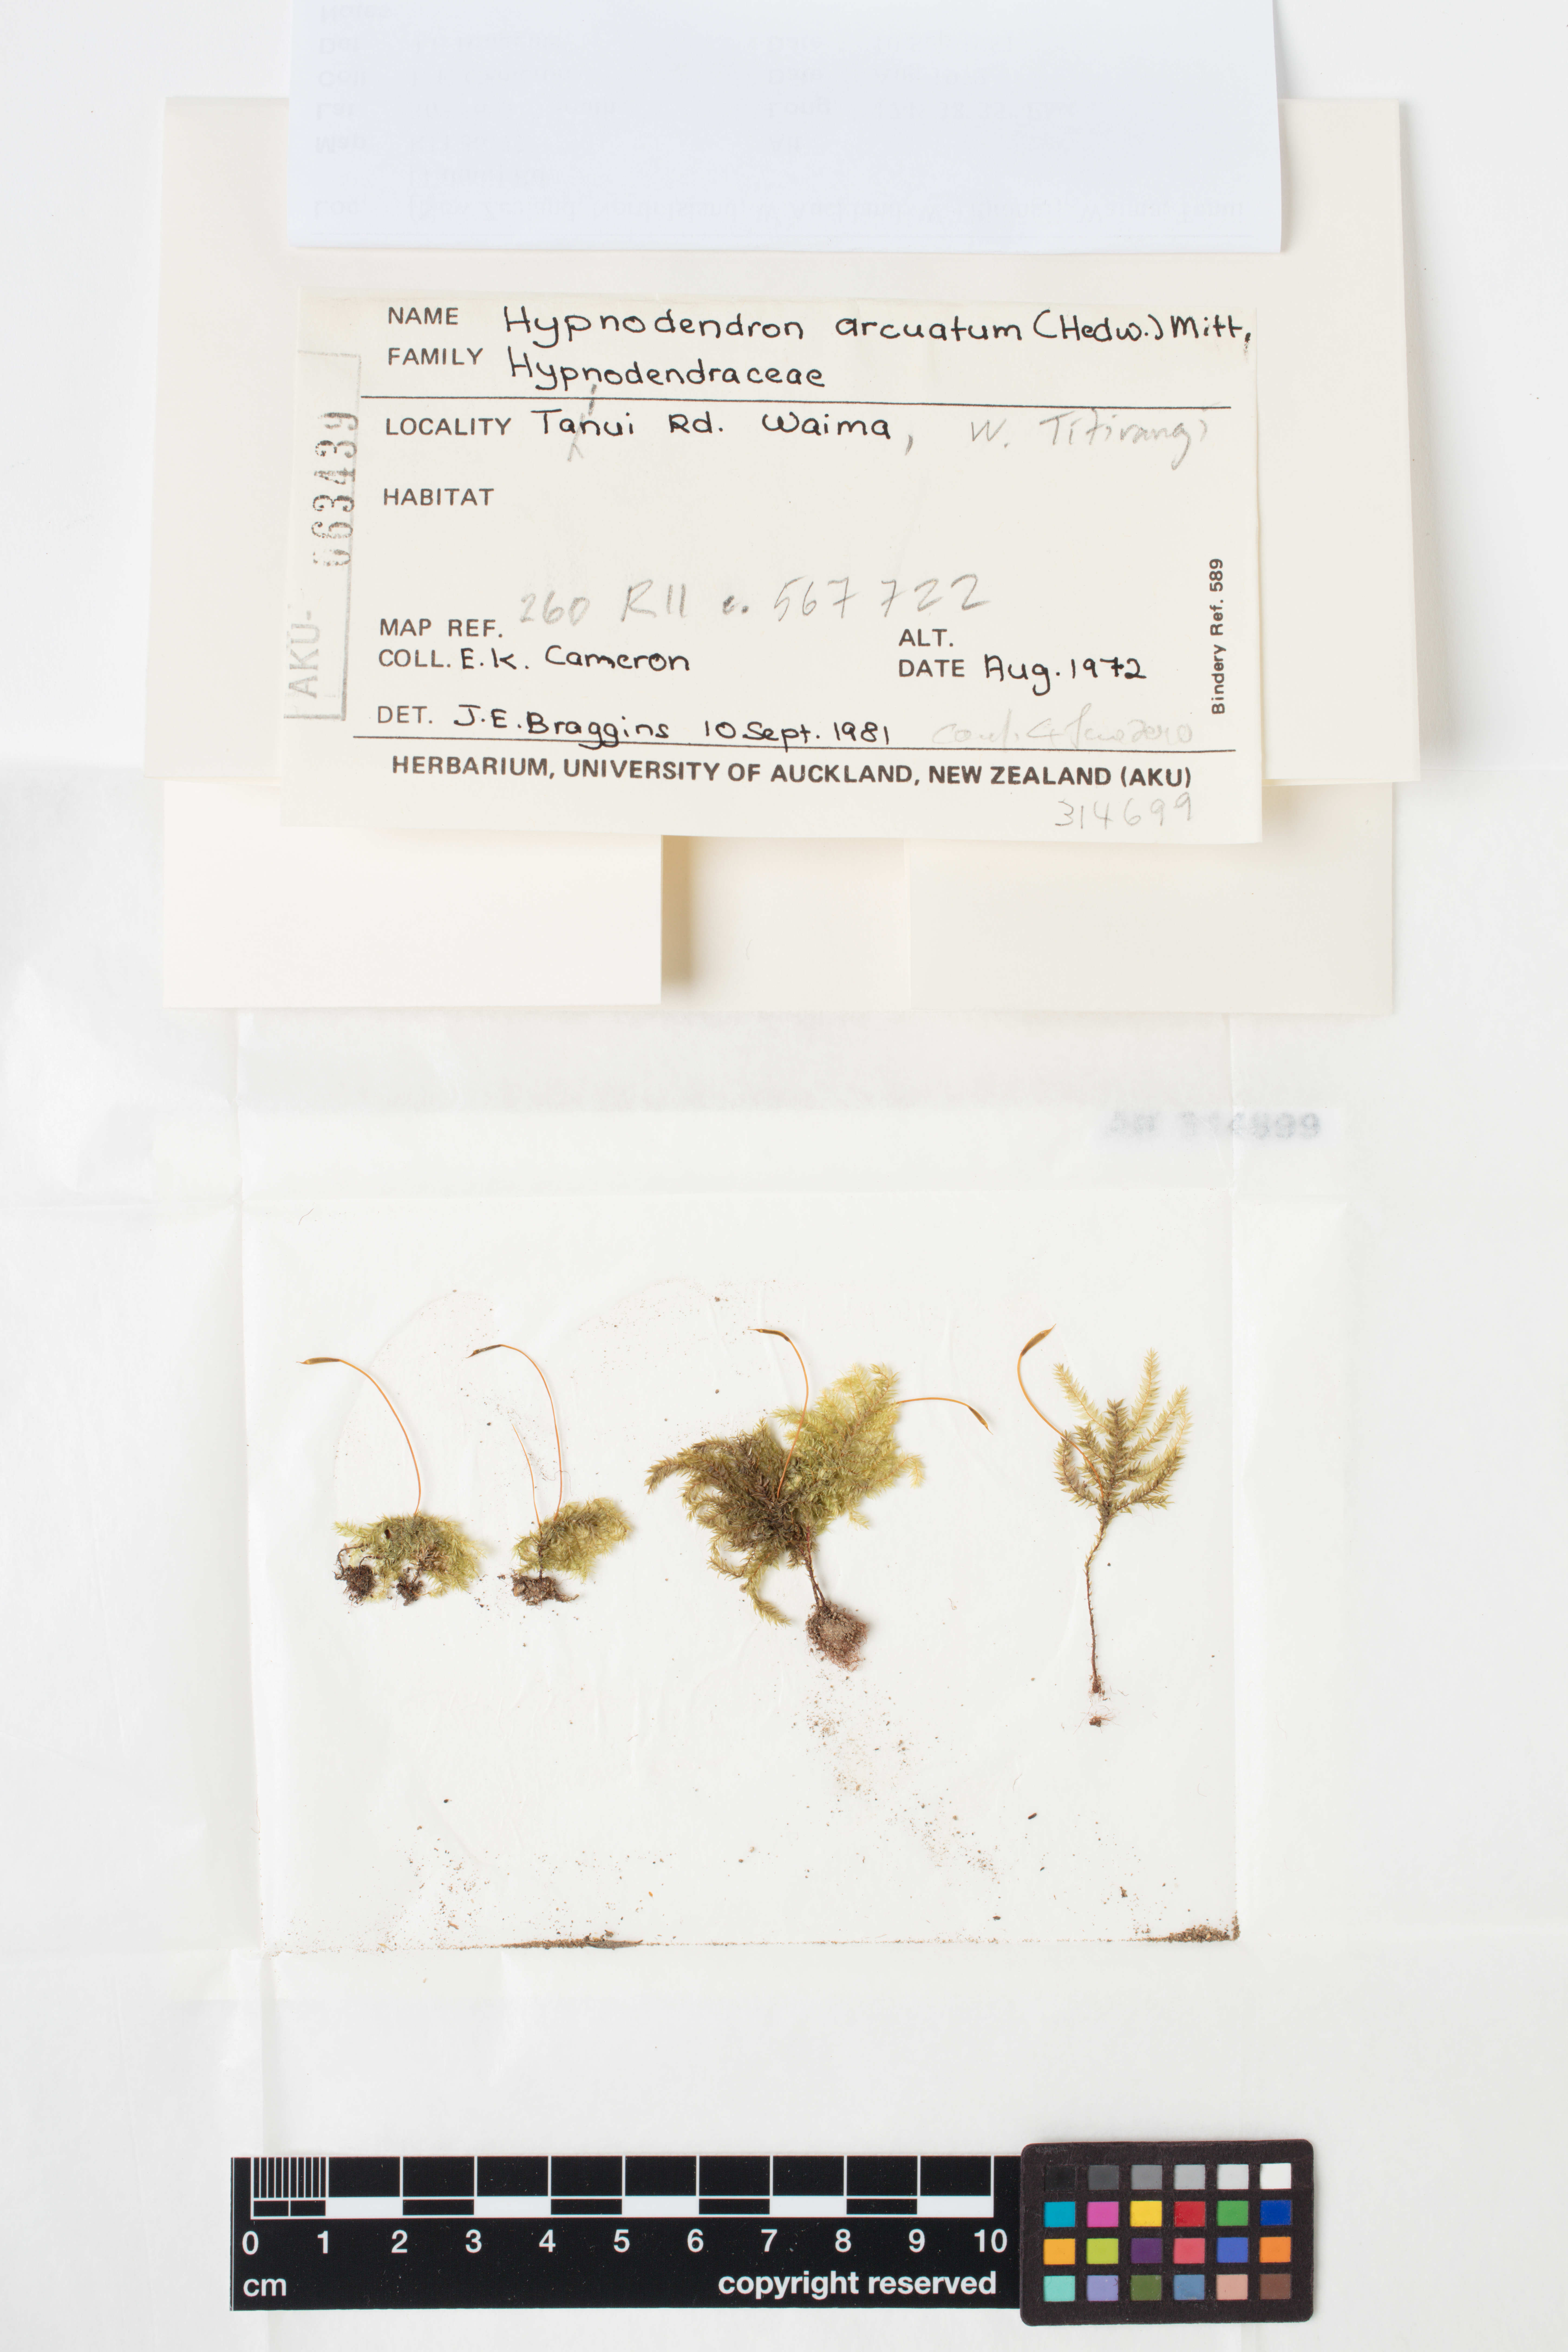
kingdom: Plantae
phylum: Bryophyta
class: Bryopsida
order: Hypnodendrales
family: Spiridentaceae
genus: Hypnodendron
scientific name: Hypnodendron arcuatum
